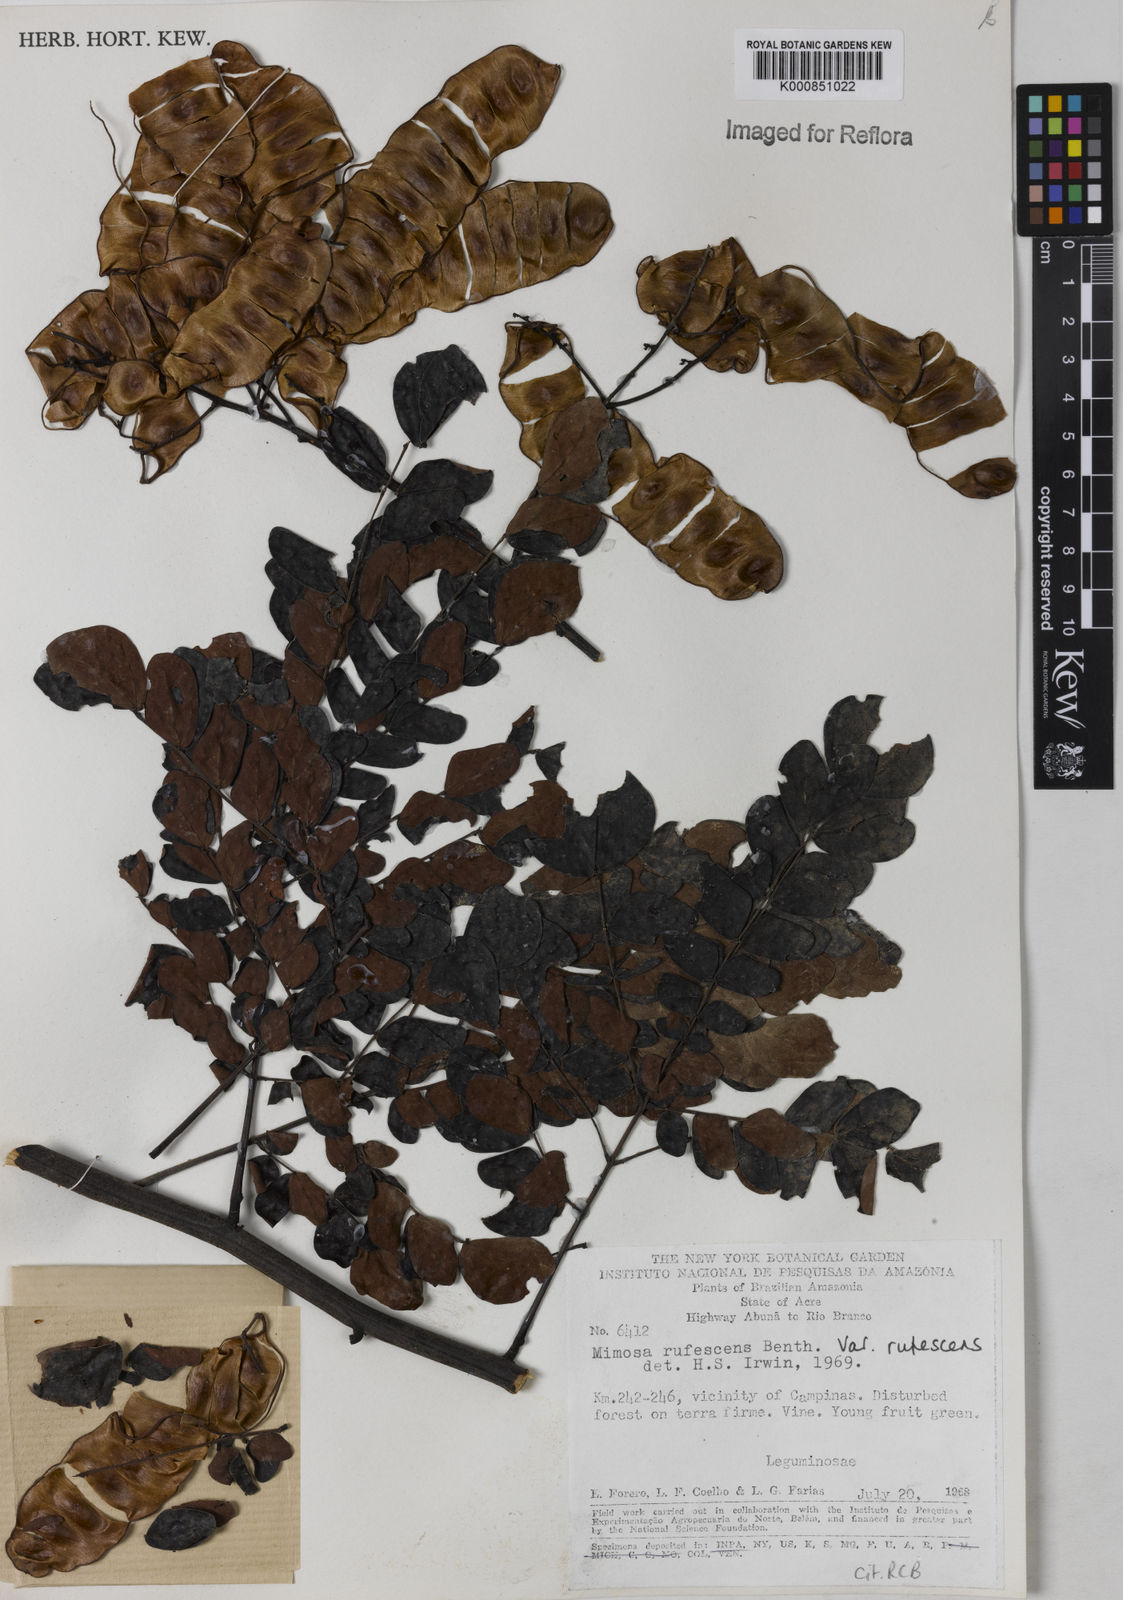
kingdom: Plantae
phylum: Tracheophyta
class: Magnoliopsida
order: Fabales
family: Fabaceae
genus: Mimosa
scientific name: Mimosa rufescens
